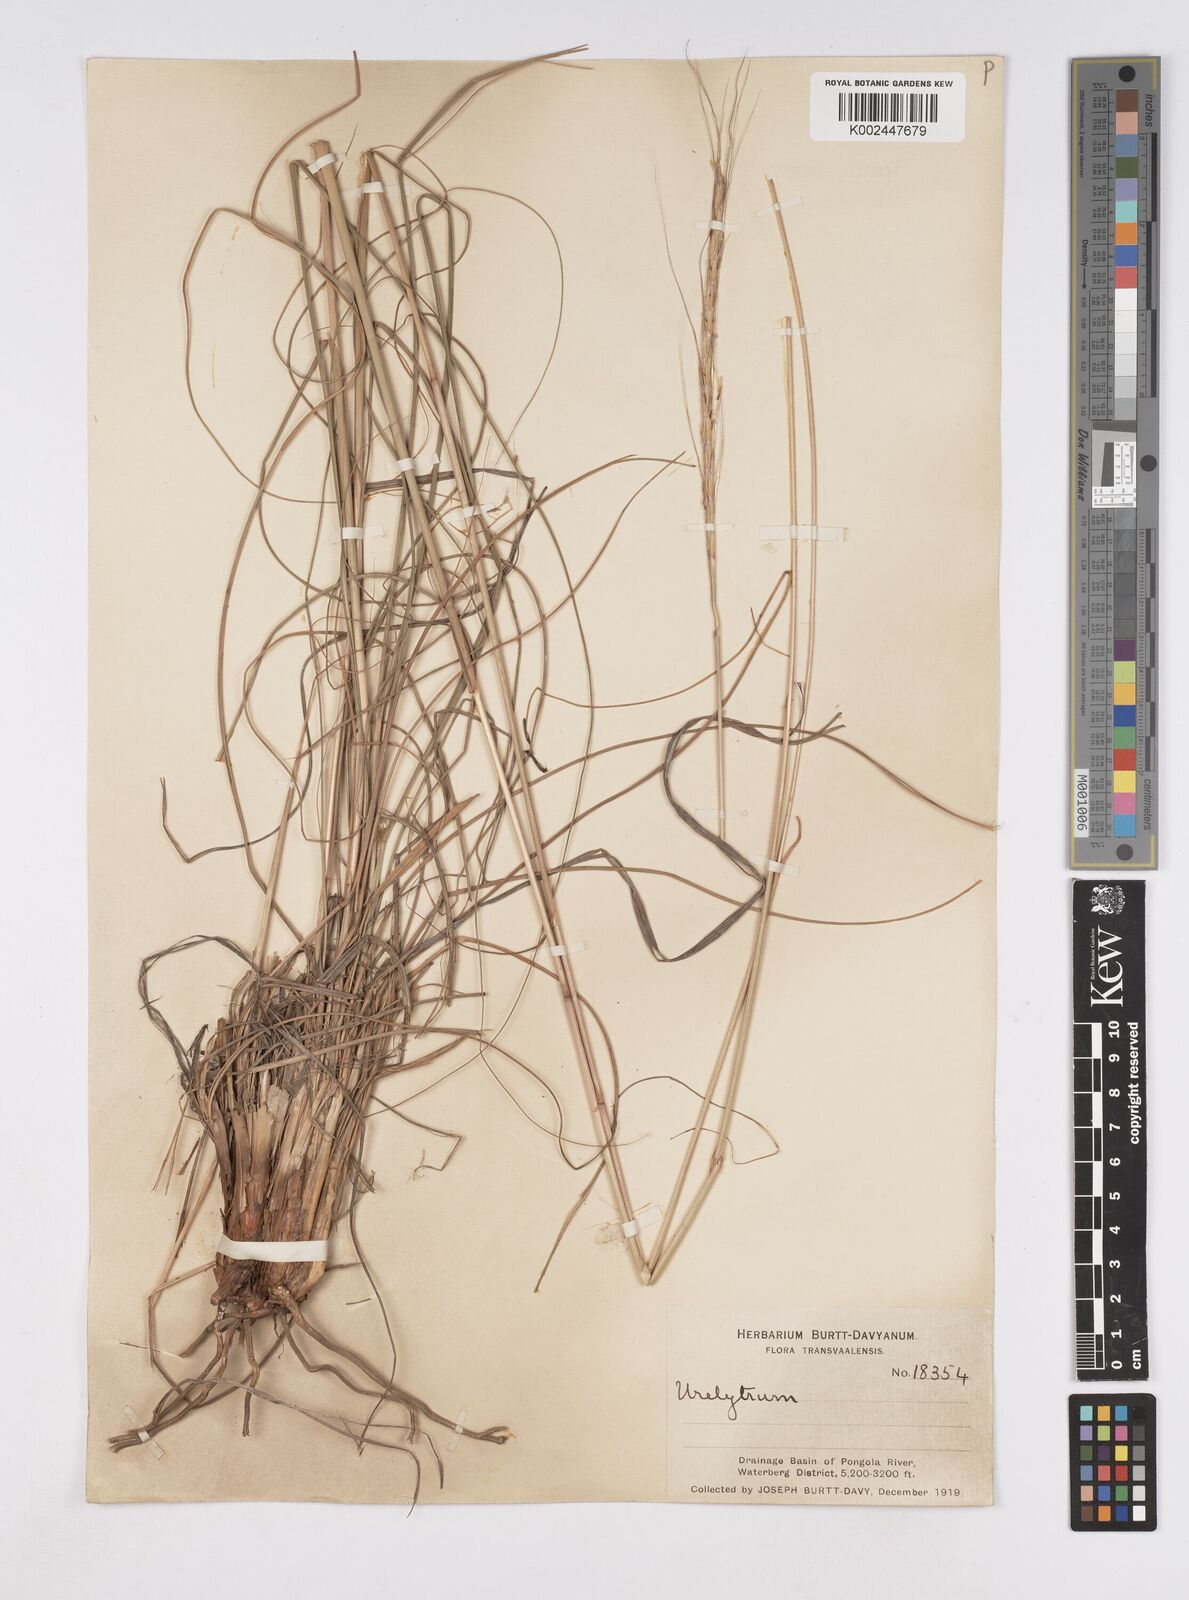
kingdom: Plantae
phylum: Tracheophyta
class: Liliopsida
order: Poales
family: Poaceae
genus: Urelytrum
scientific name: Urelytrum agropyroides
